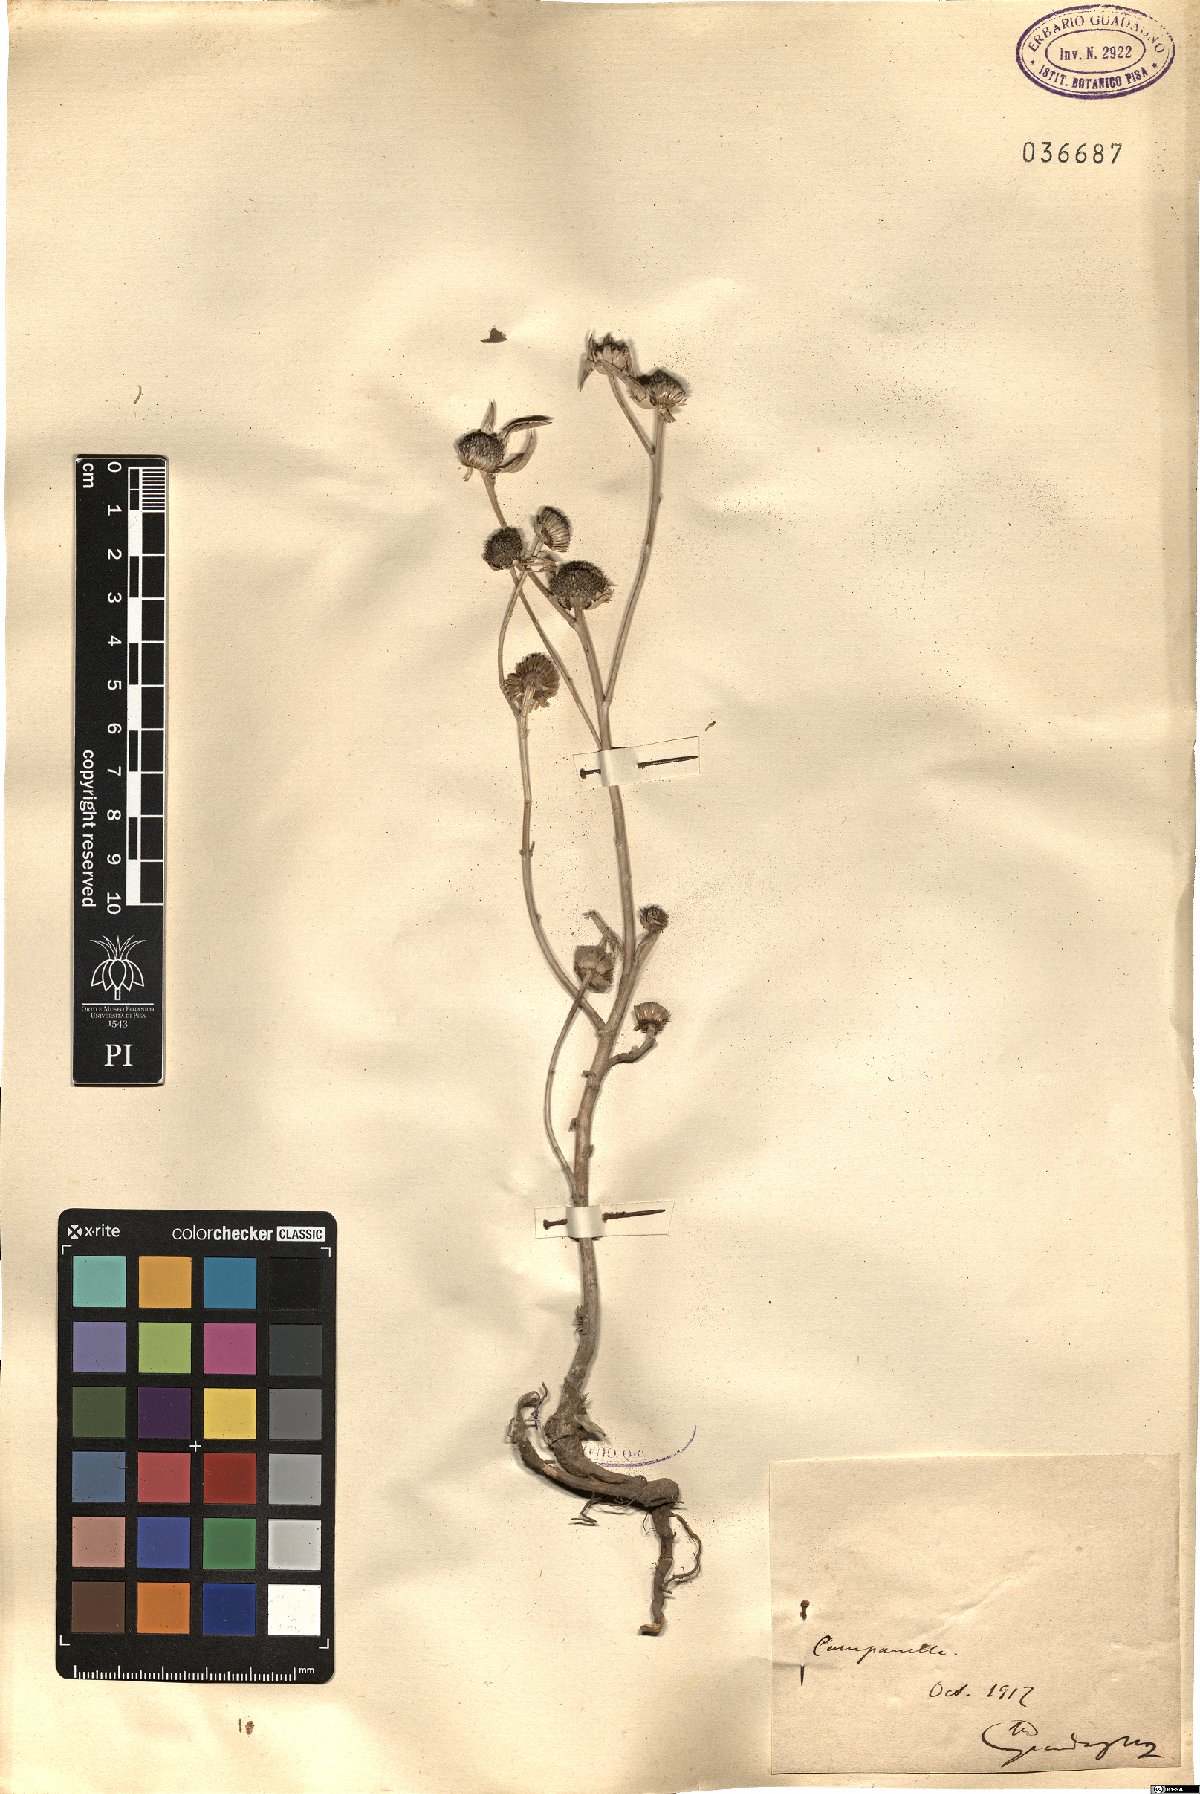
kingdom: Plantae
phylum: Tracheophyta
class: Magnoliopsida
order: Asterales
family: Asteraceae
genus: Asteriscus
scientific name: Asteriscus
